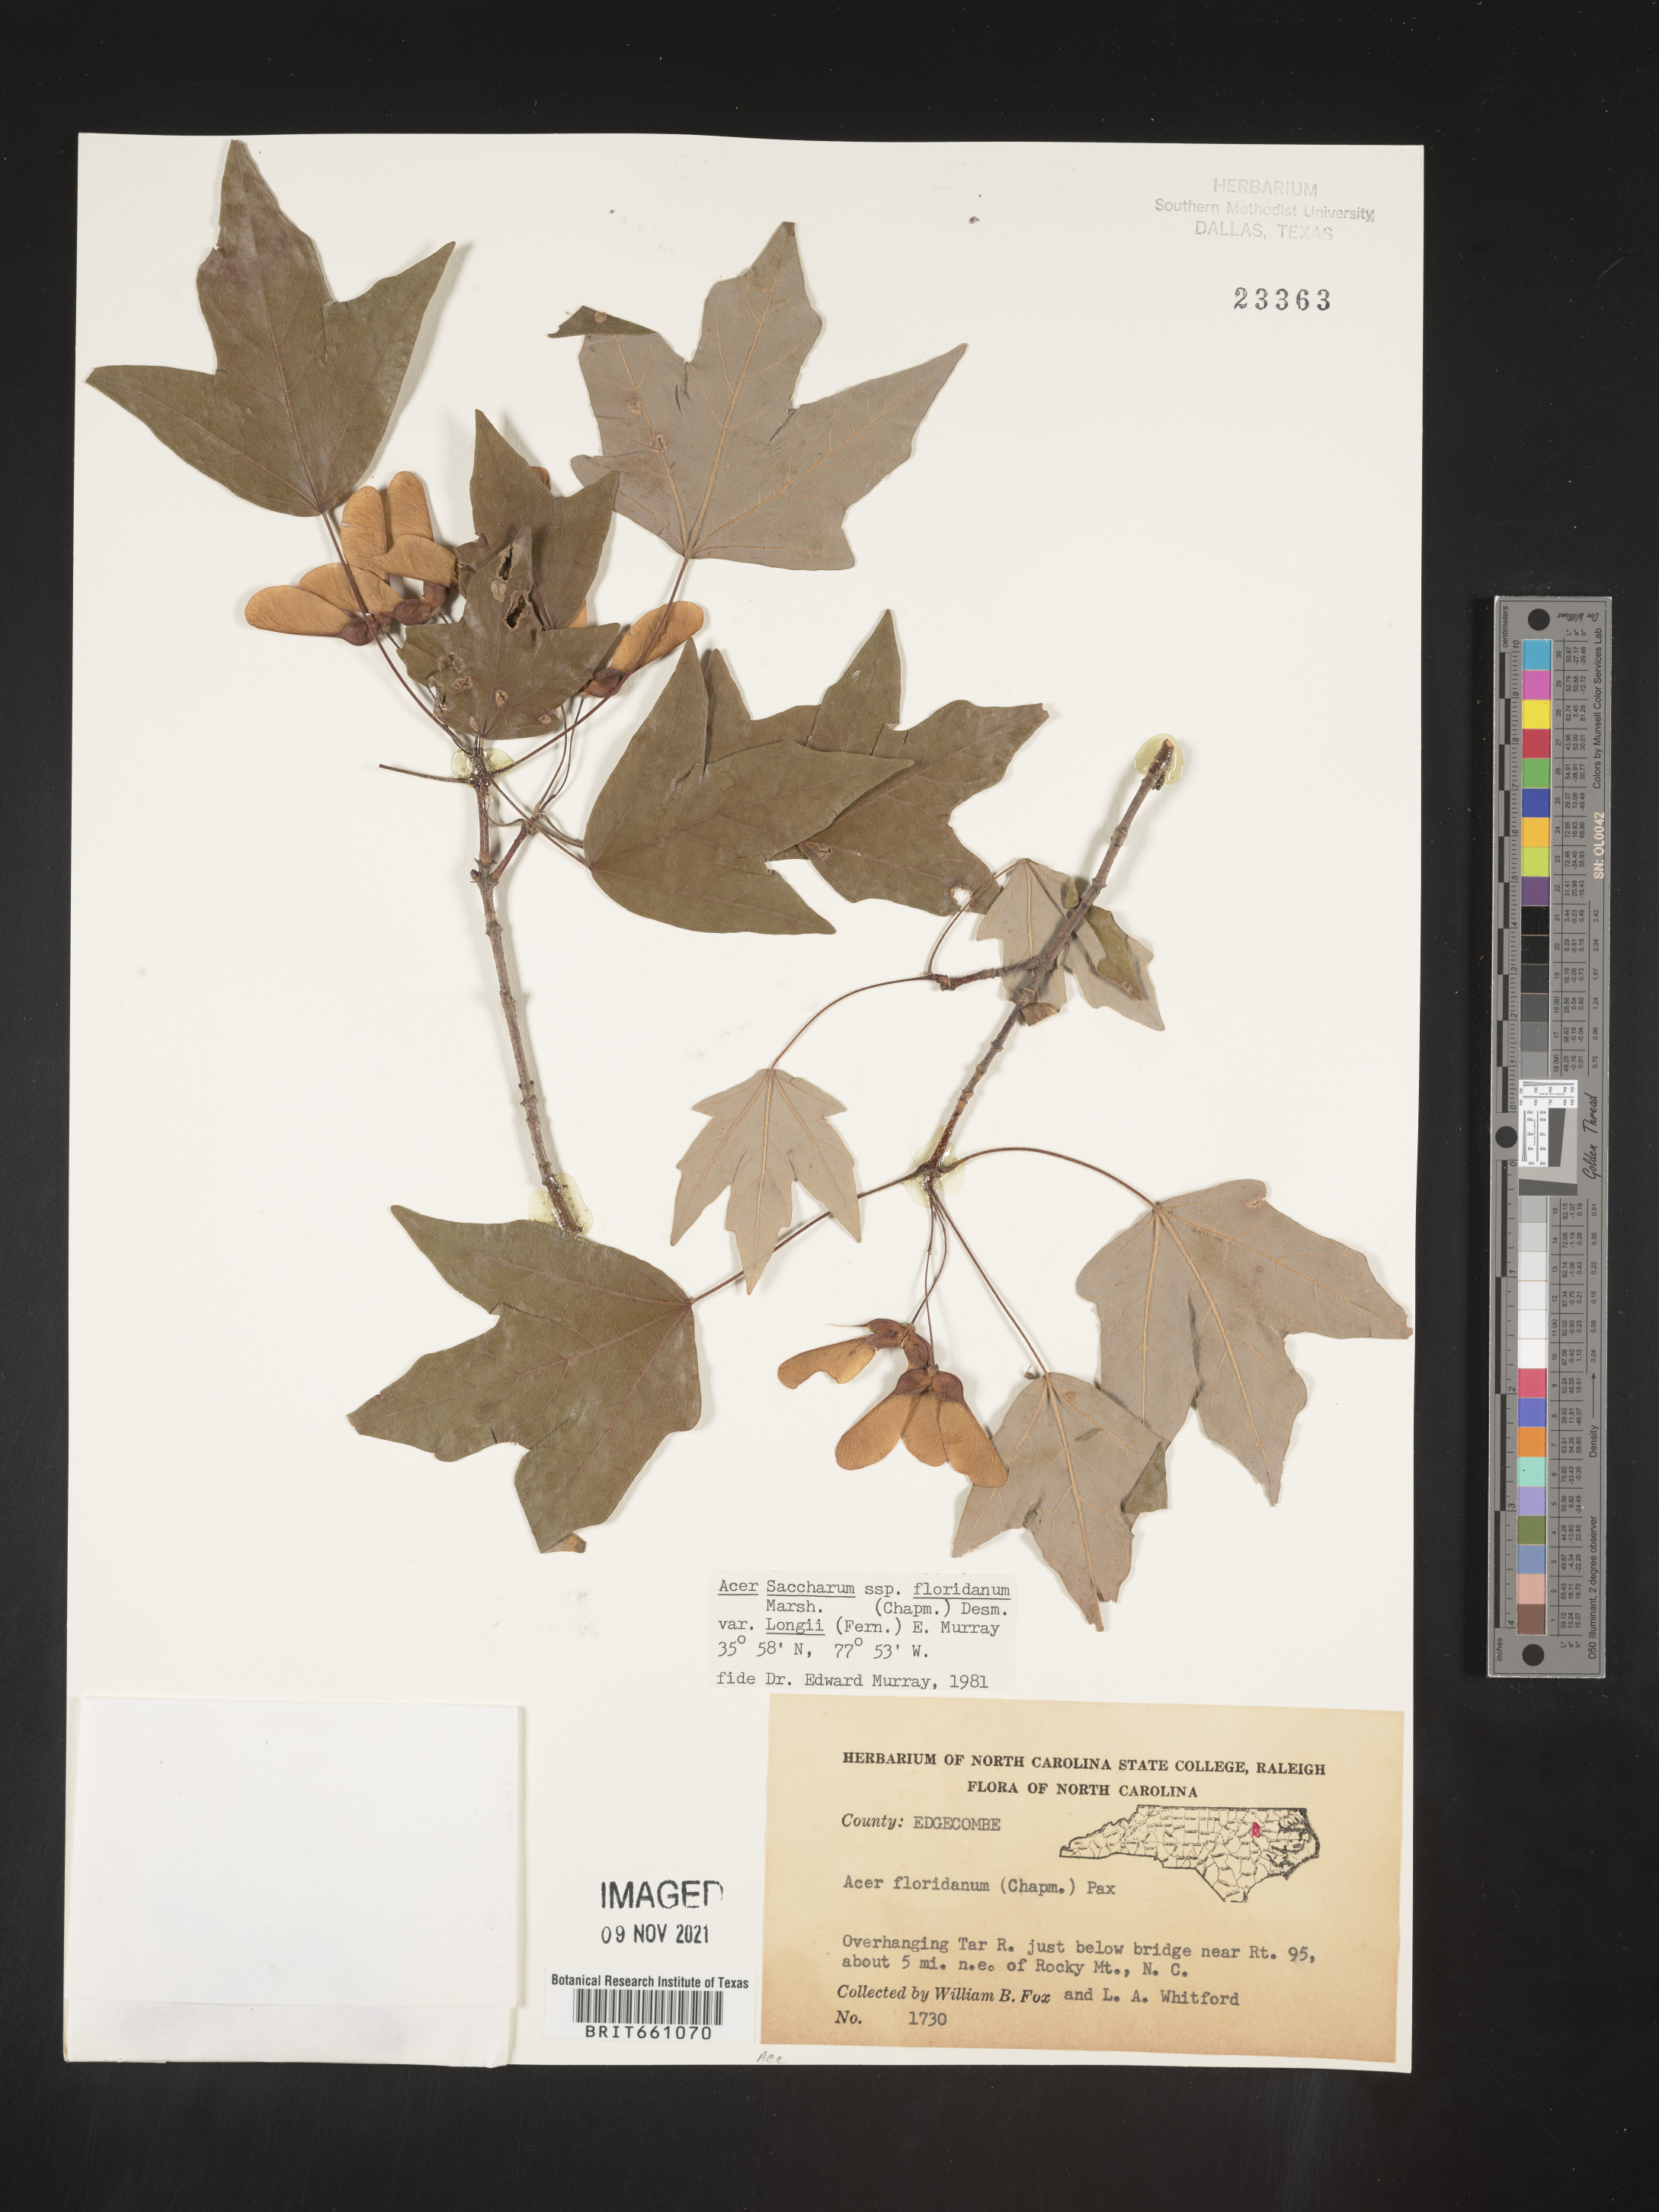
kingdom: Plantae
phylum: Tracheophyta
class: Magnoliopsida
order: Sapindales
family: Sapindaceae
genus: Acer
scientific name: Acer barbatum
